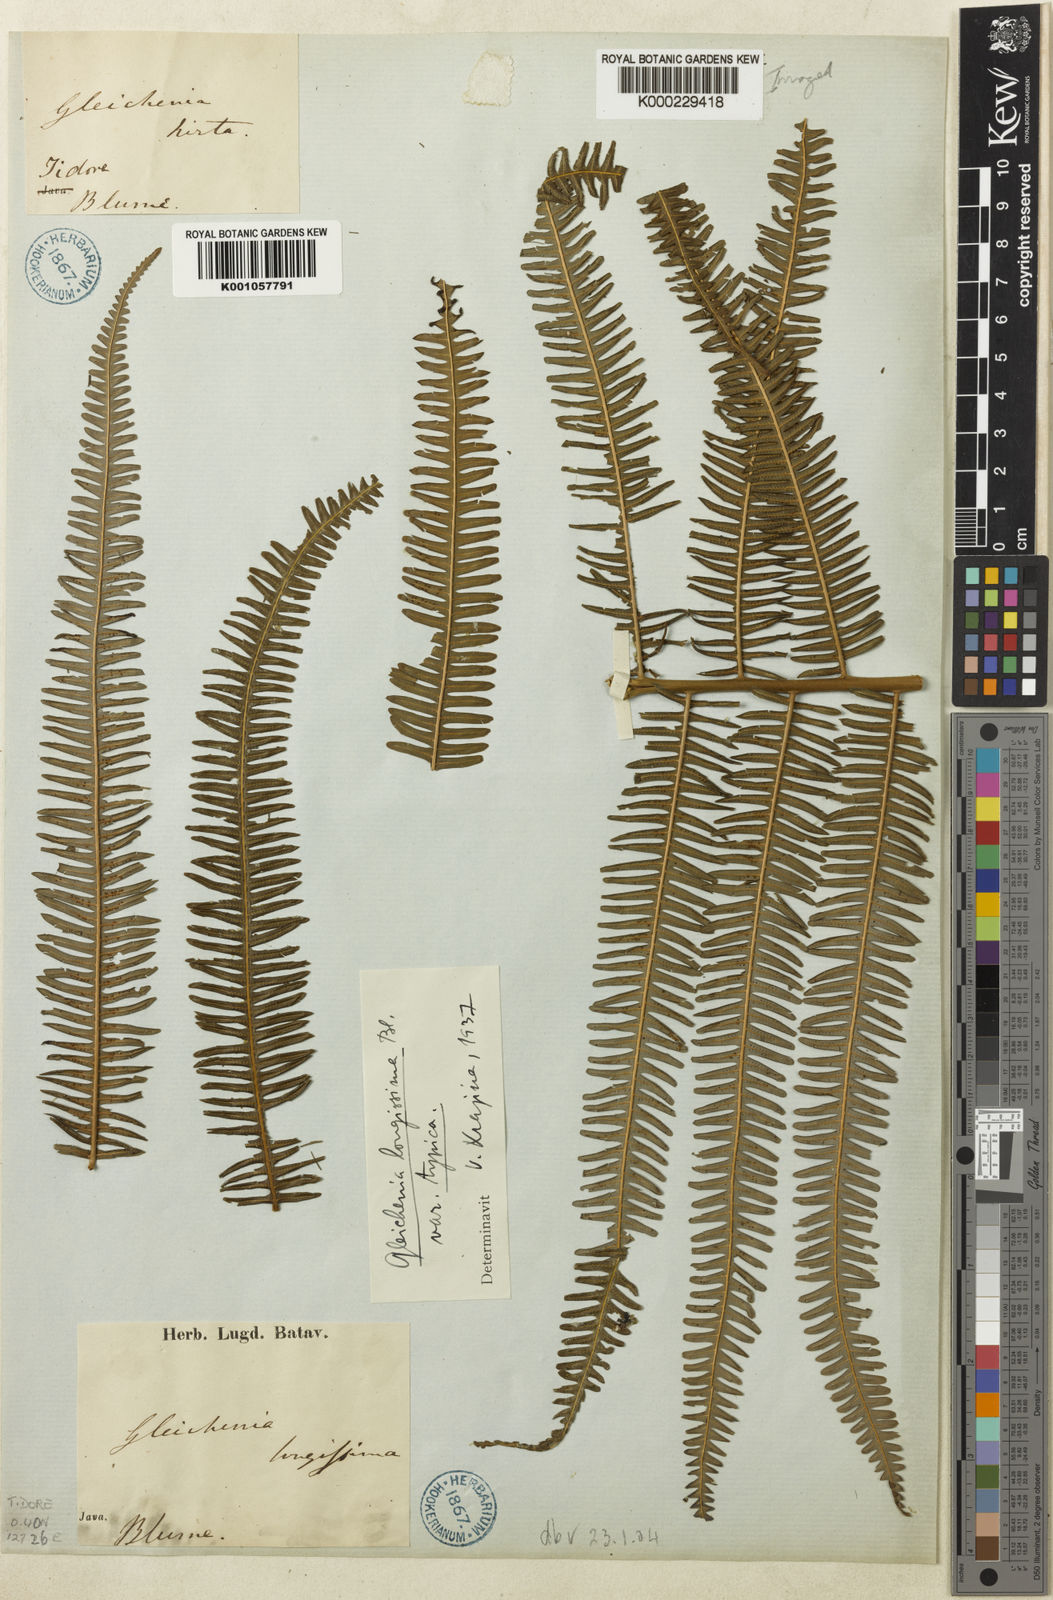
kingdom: Plantae
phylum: Tracheophyta
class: Polypodiopsida
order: Gleicheniales
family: Gleicheniaceae
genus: Diplopterygium
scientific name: Diplopterygium longissimum
